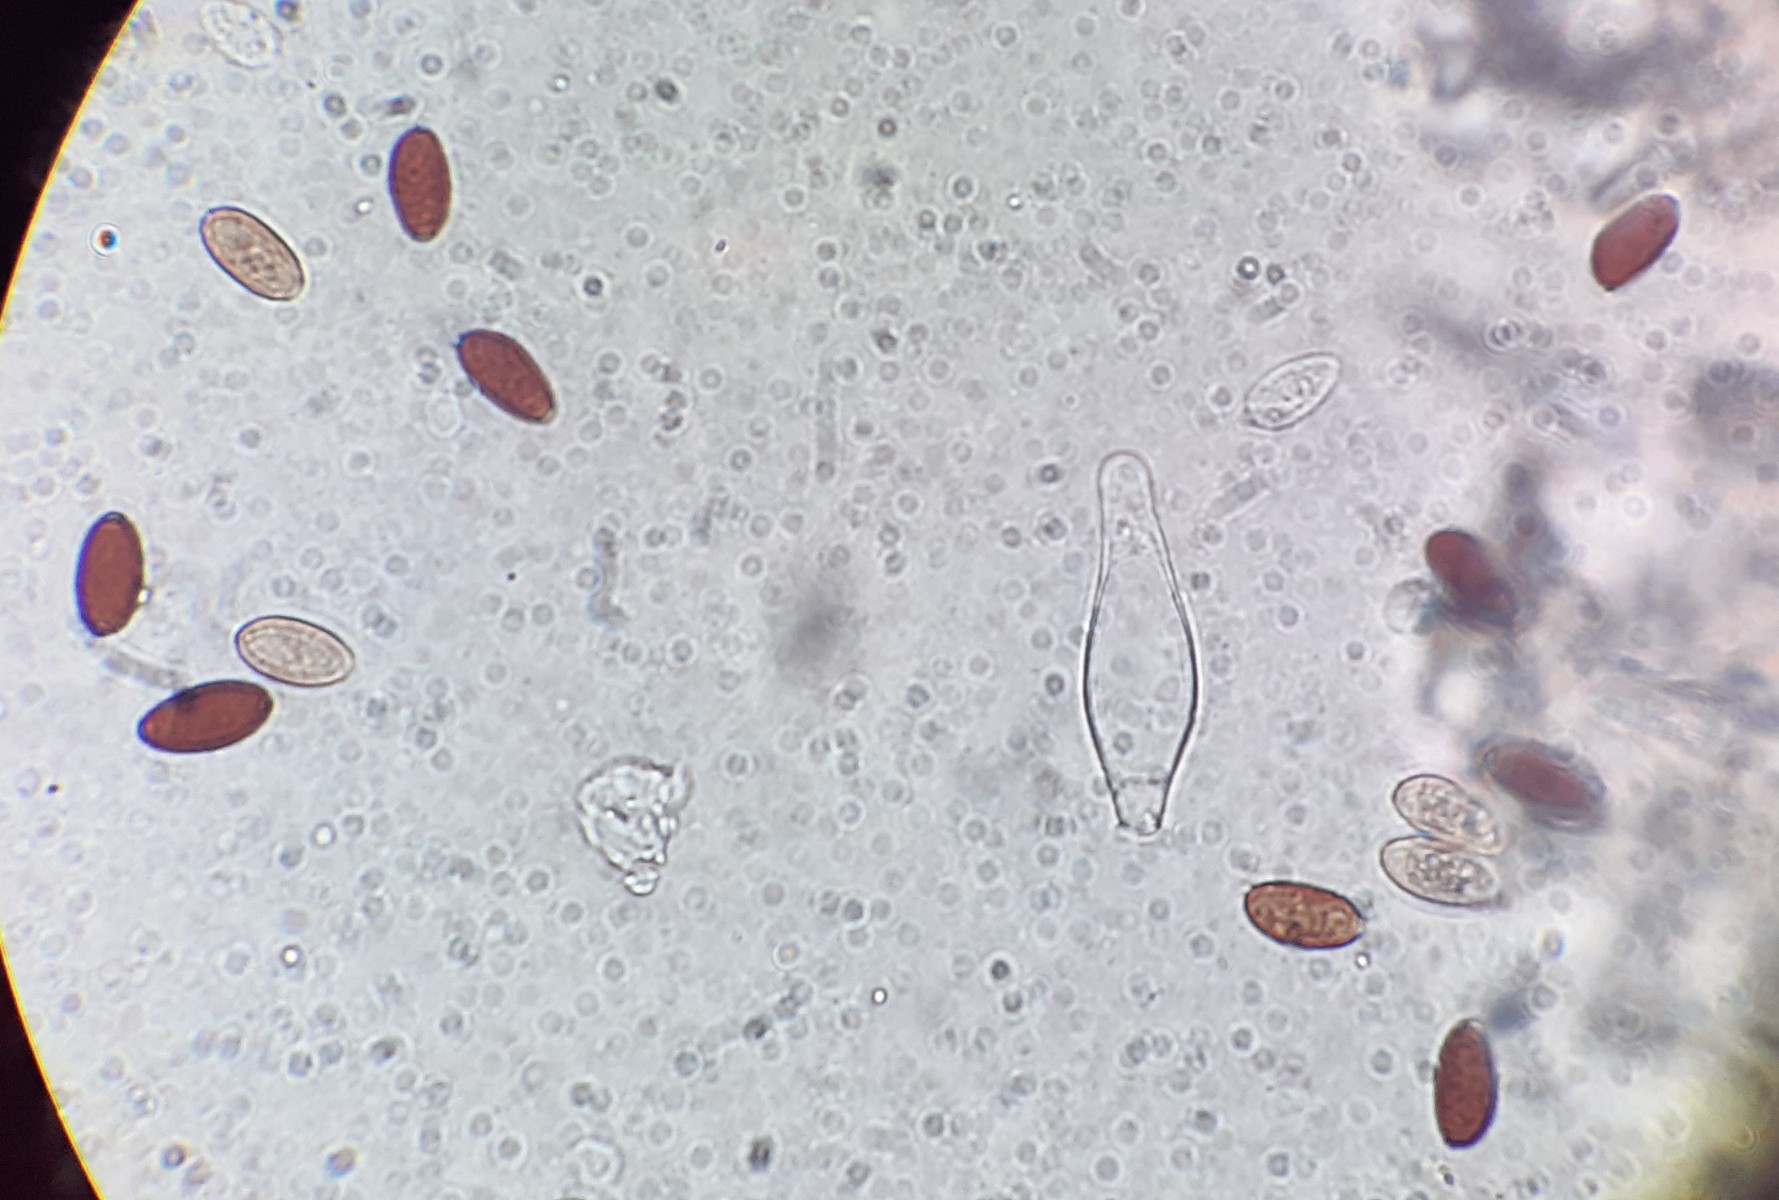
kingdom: Fungi
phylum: Basidiomycota
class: Agaricomycetes
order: Agaricales
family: Psathyrellaceae
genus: Psathyrella
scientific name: Psathyrella
